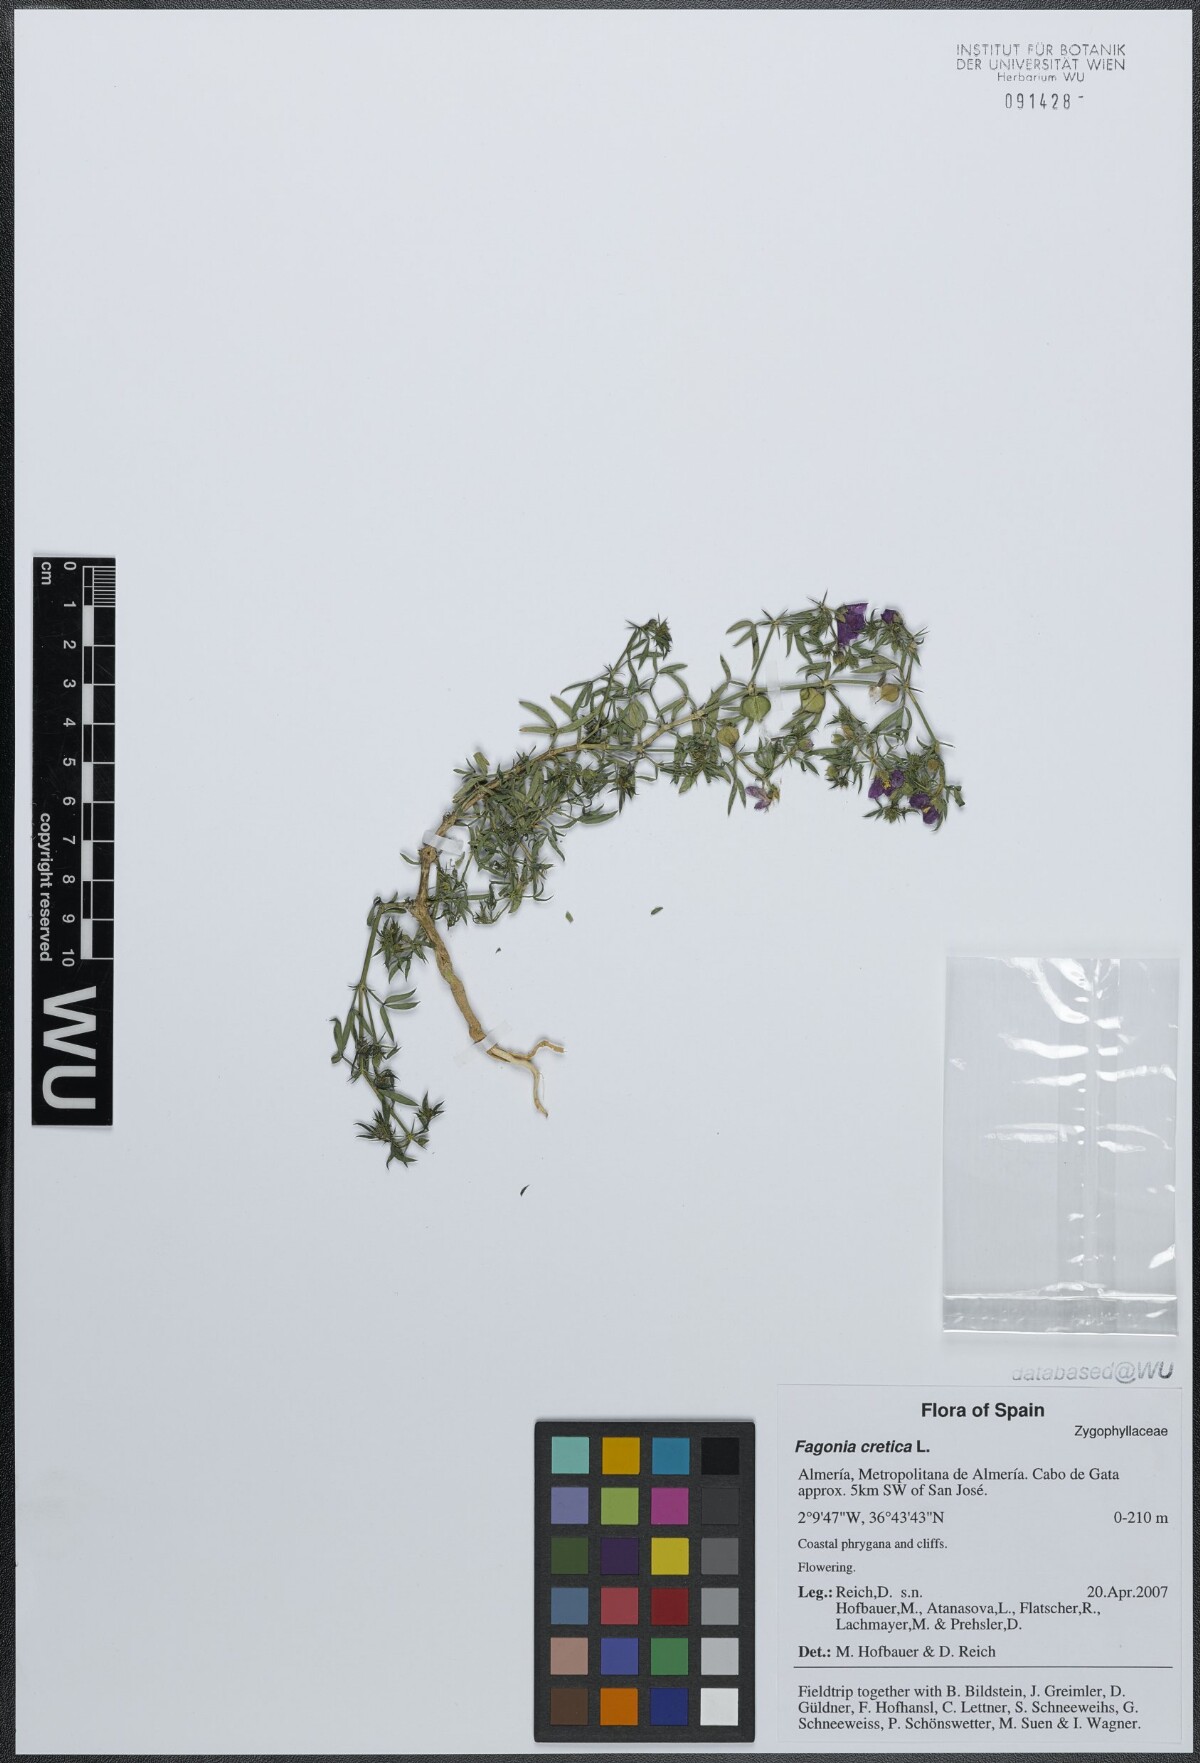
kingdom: Plantae
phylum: Tracheophyta
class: Magnoliopsida
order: Zygophyllales
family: Zygophyllaceae
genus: Fagonia
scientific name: Fagonia cretica
